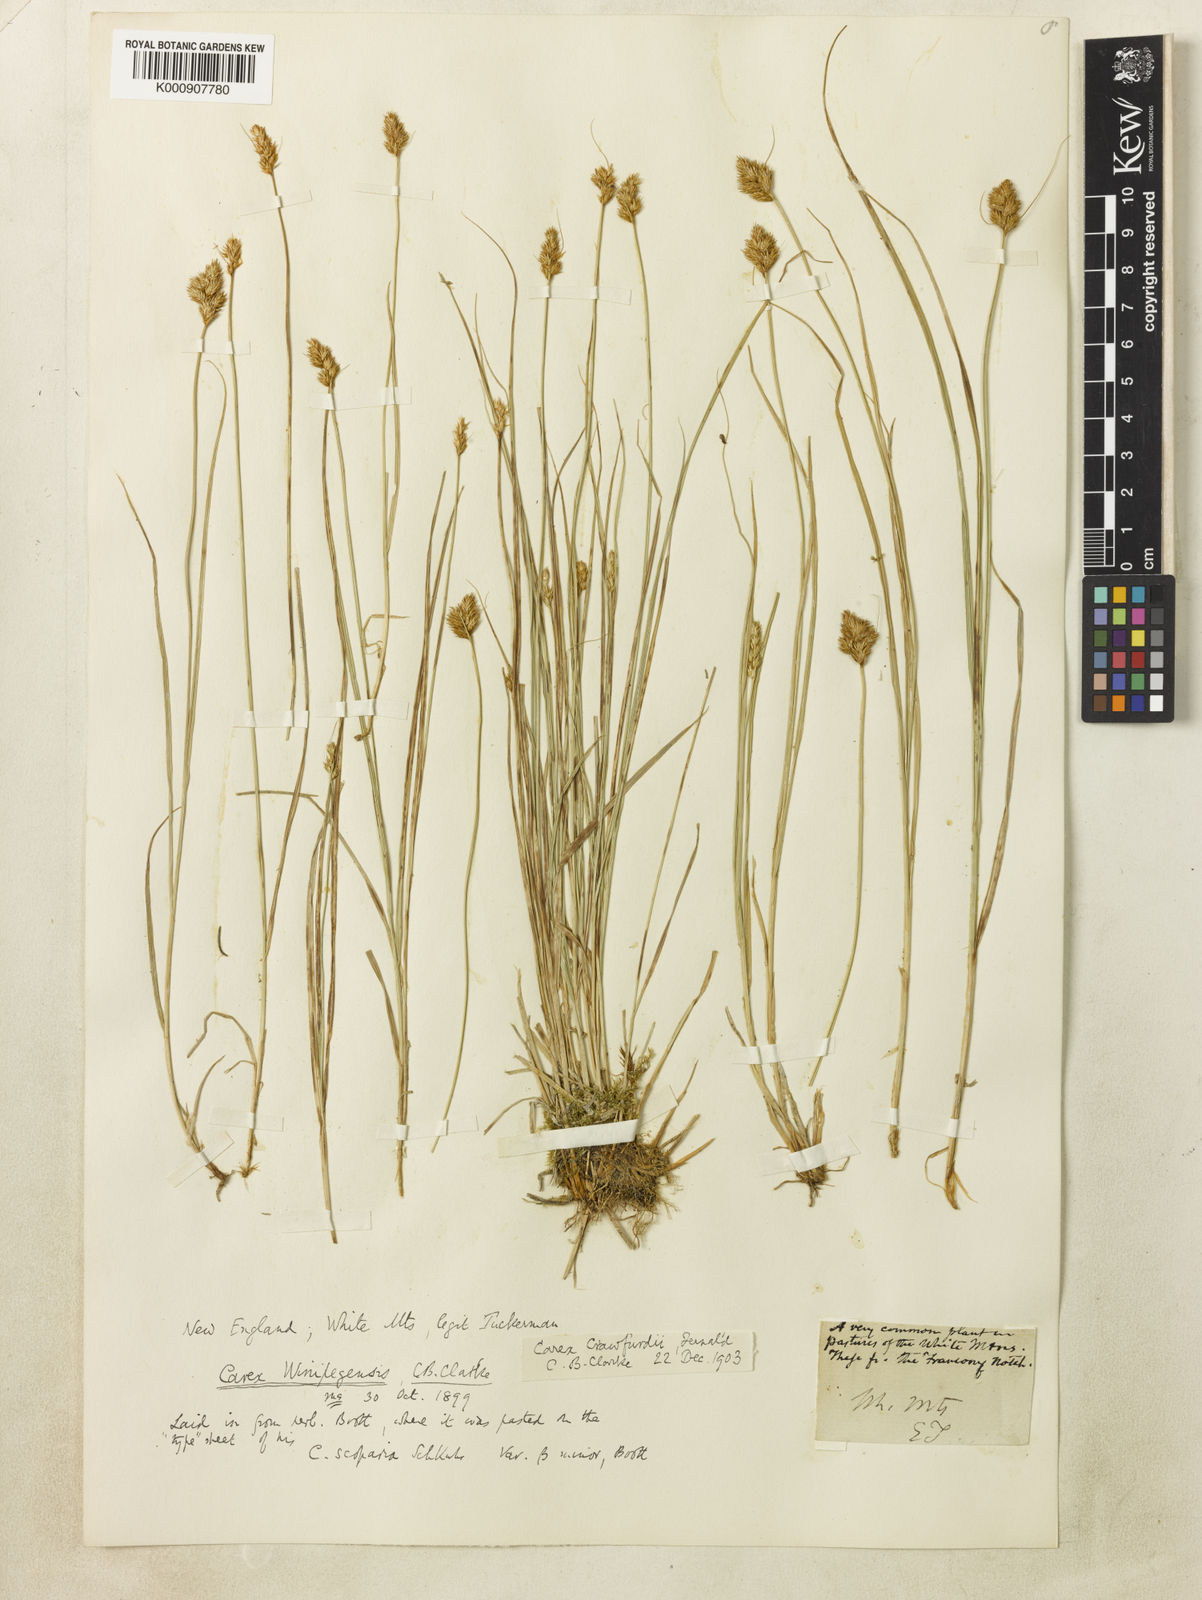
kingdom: Plantae
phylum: Tracheophyta
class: Liliopsida
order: Poales
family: Cyperaceae
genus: Carex
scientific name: Carex crawfordii
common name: Crawford's sedge
